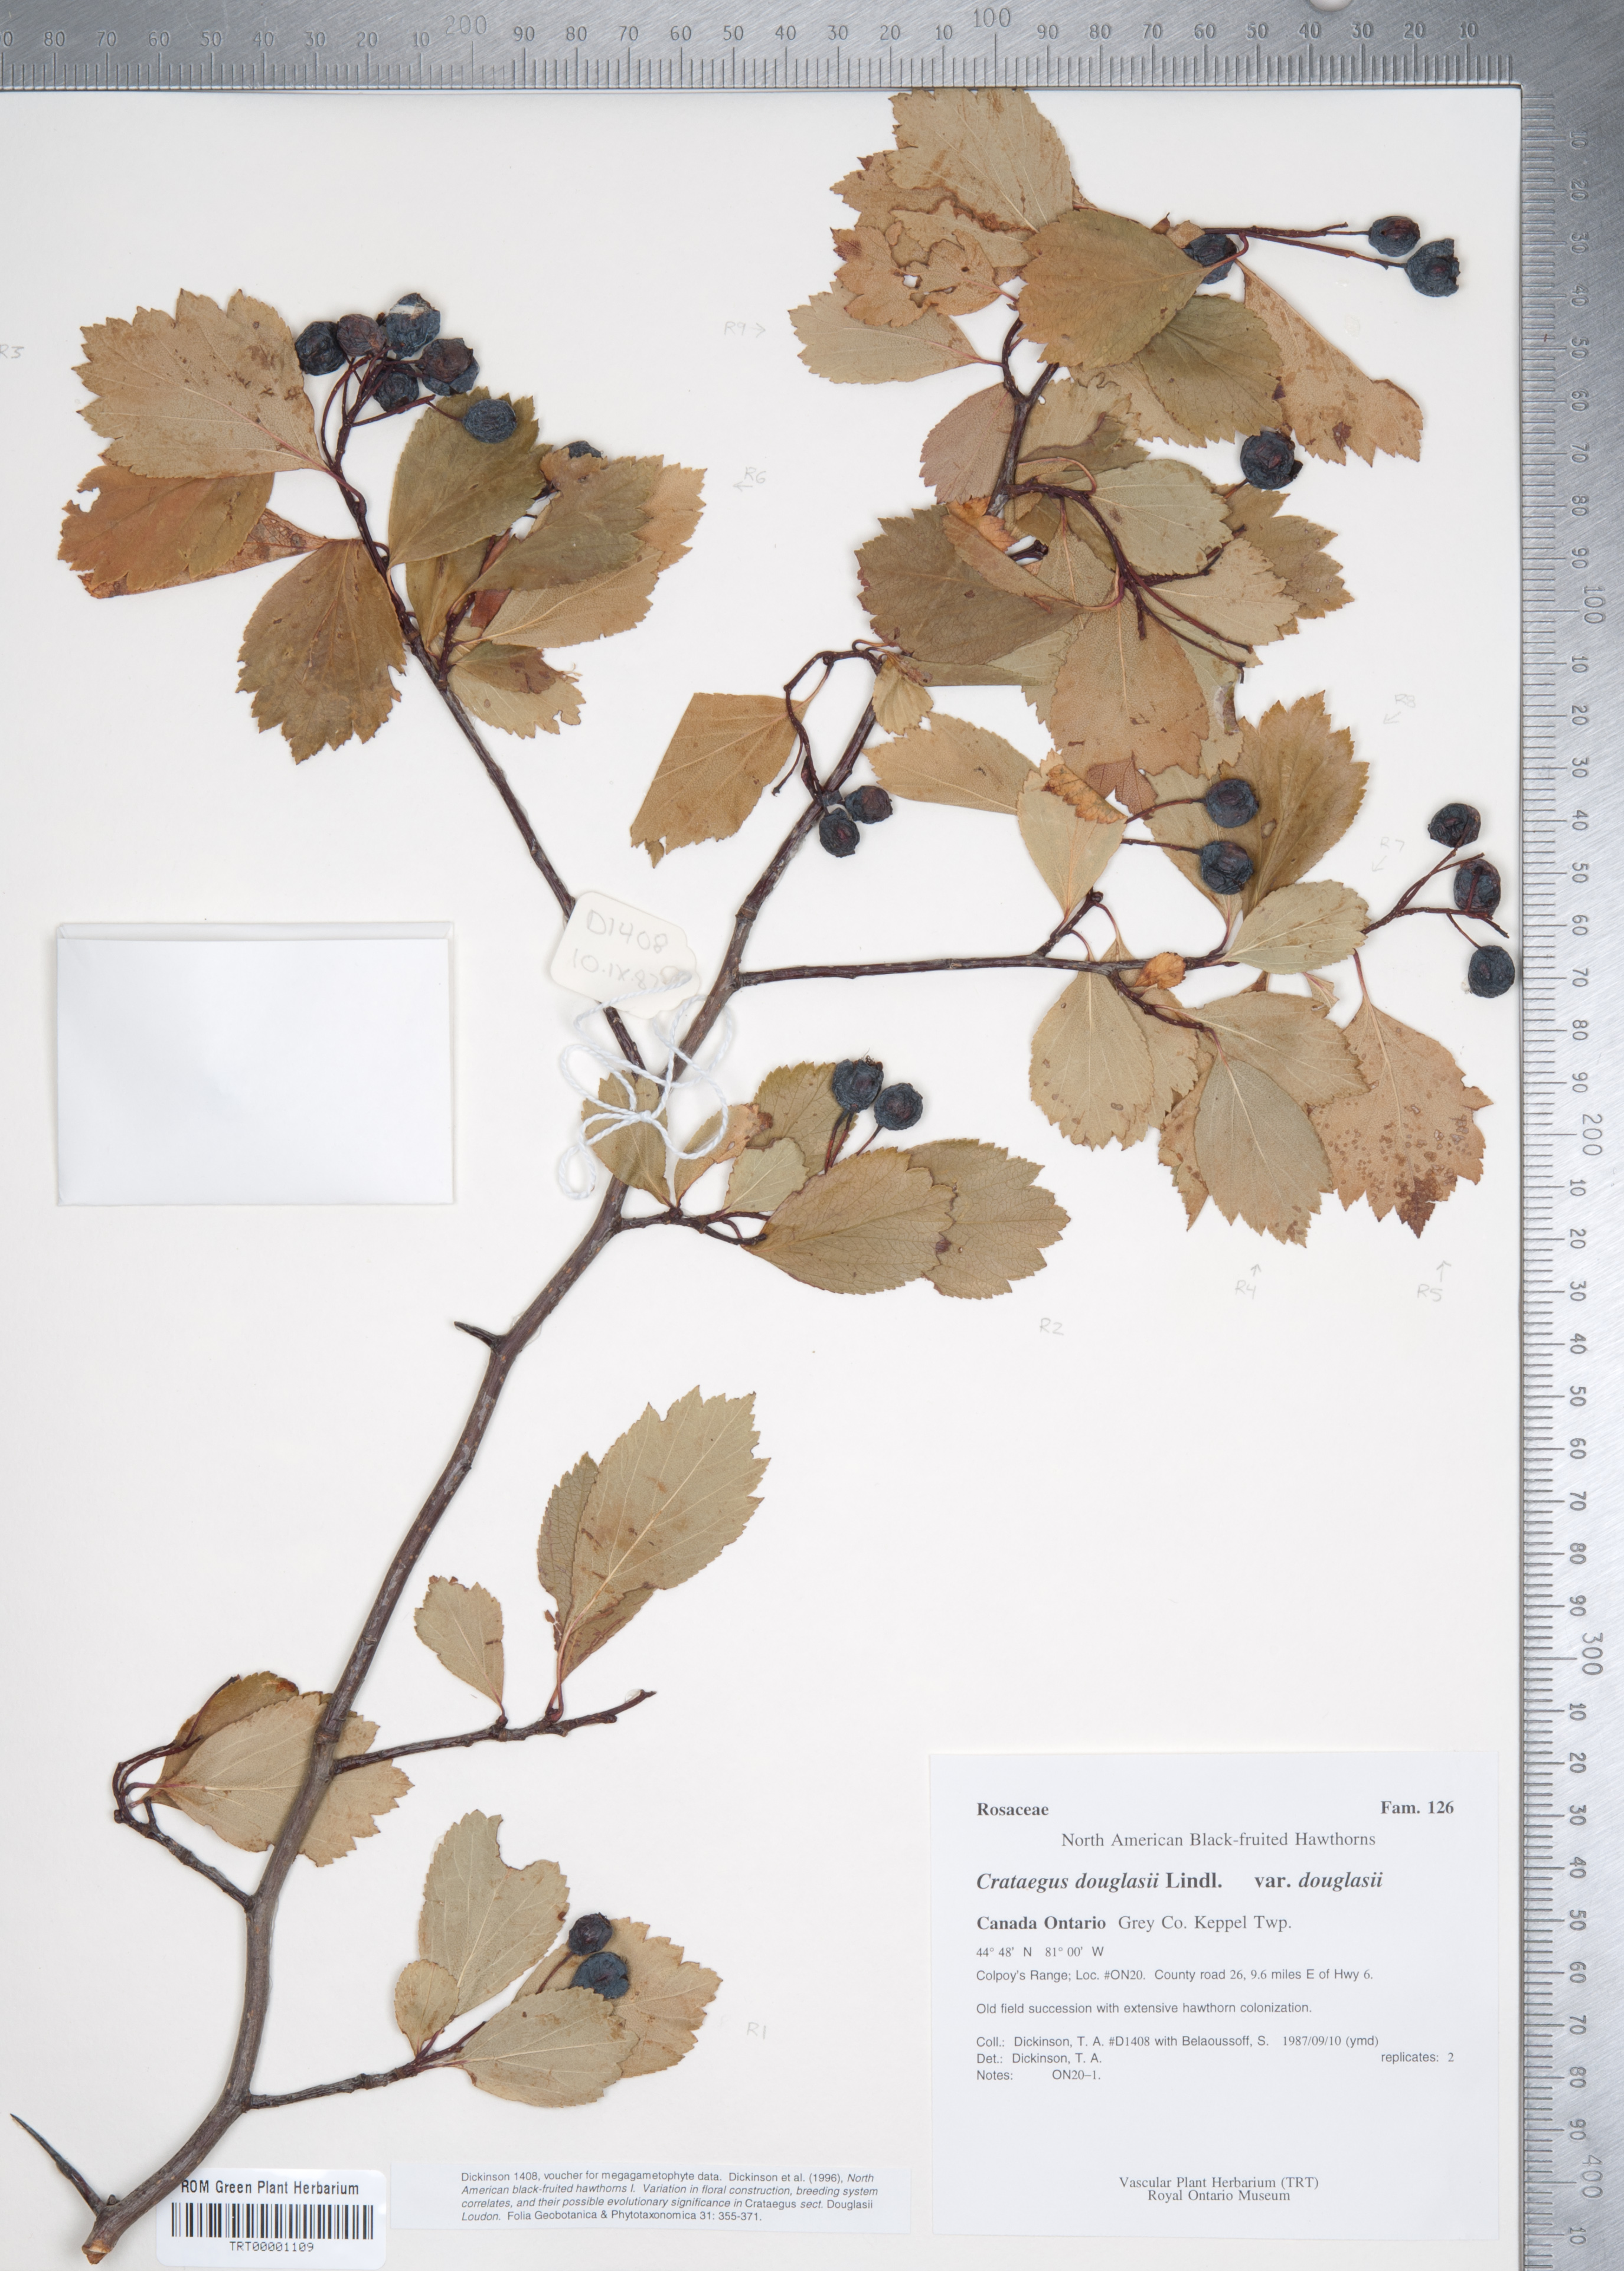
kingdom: Plantae
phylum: Tracheophyta
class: Magnoliopsida
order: Rosales
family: Rosaceae
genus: Crataegus
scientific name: Crataegus douglasii
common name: Black hawthorn
